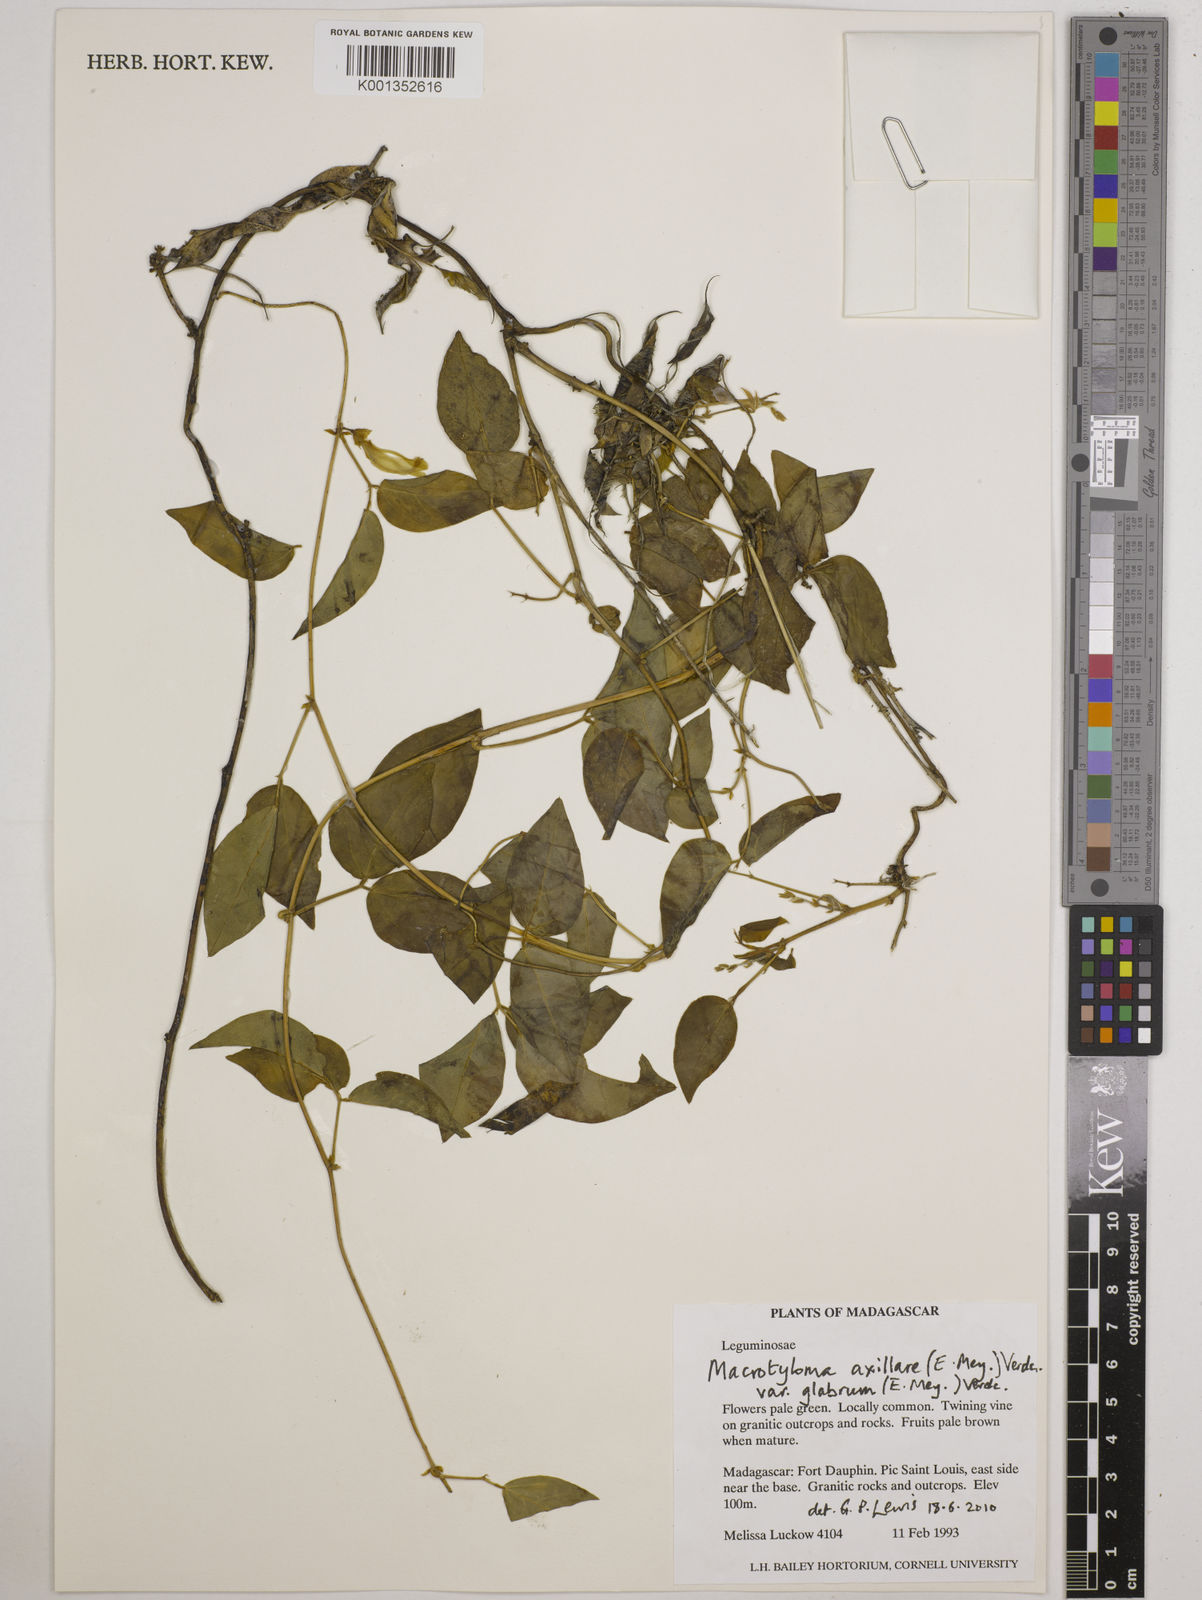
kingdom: Plantae
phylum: Tracheophyta
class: Magnoliopsida
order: Fabales
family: Fabaceae
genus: Macrotyloma
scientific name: Macrotyloma
